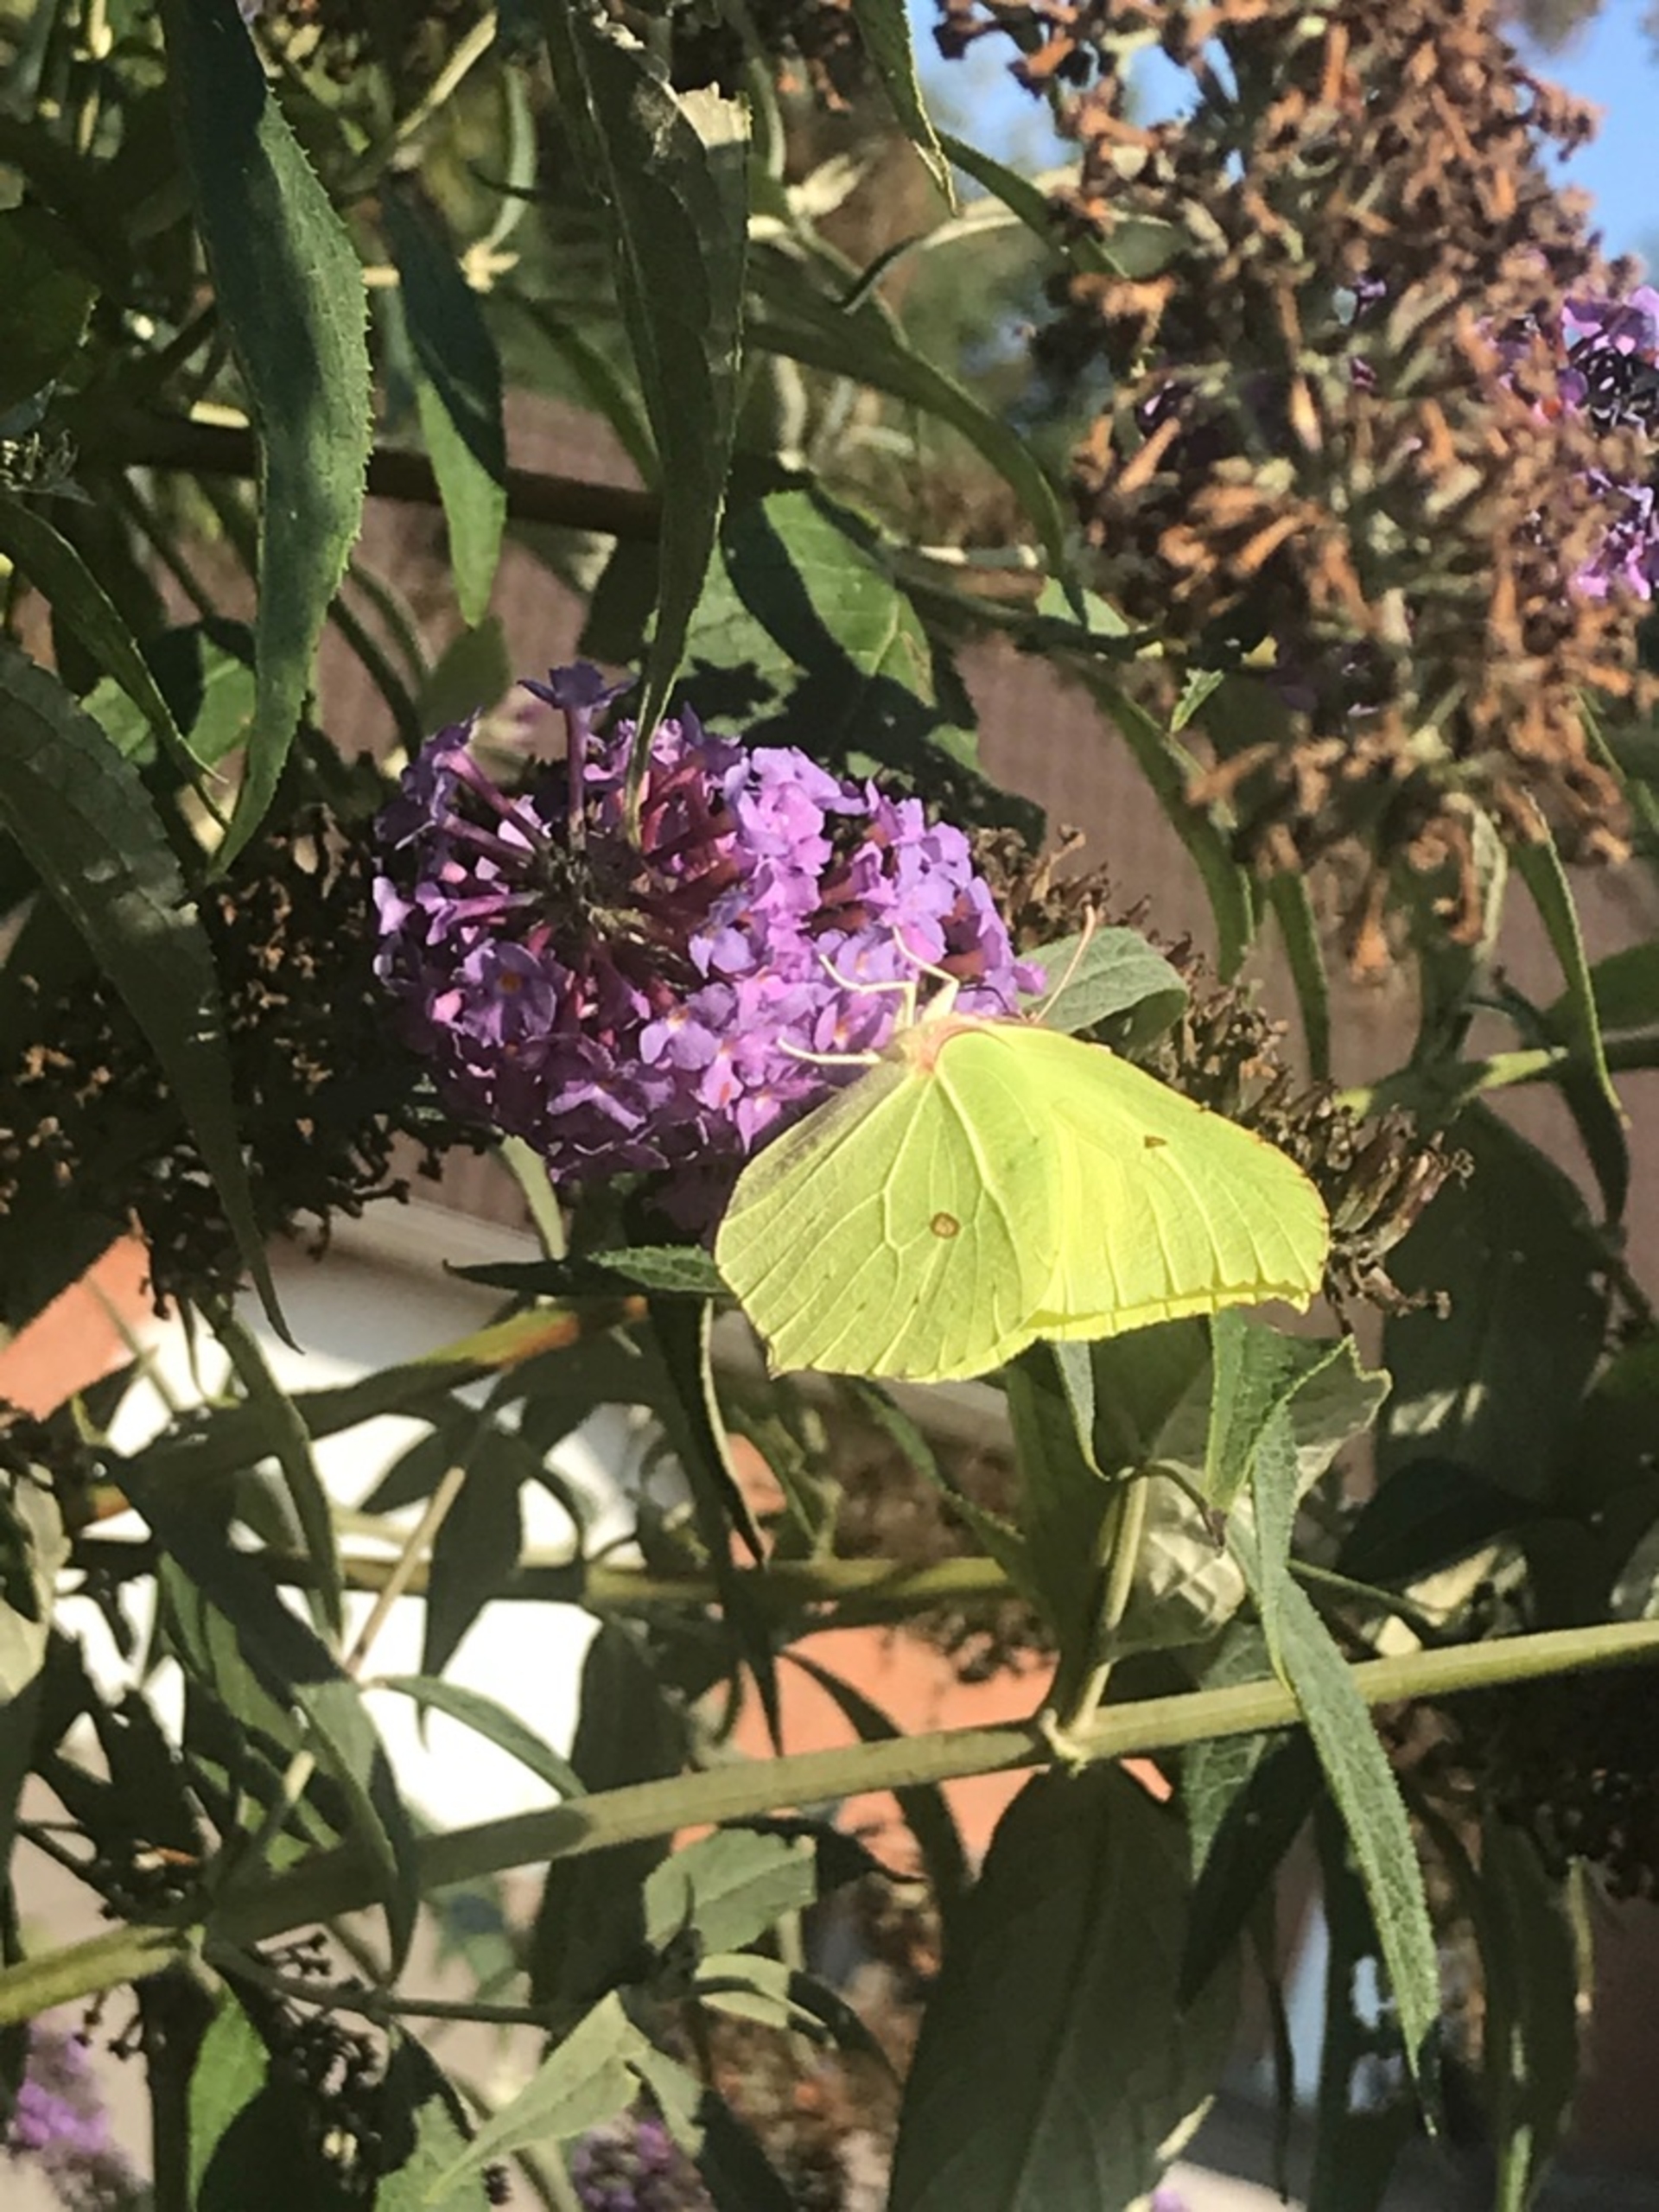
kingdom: Animalia
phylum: Arthropoda
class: Insecta
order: Lepidoptera
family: Pieridae
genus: Gonepteryx
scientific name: Gonepteryx rhamni
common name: Citronsommerfugl
